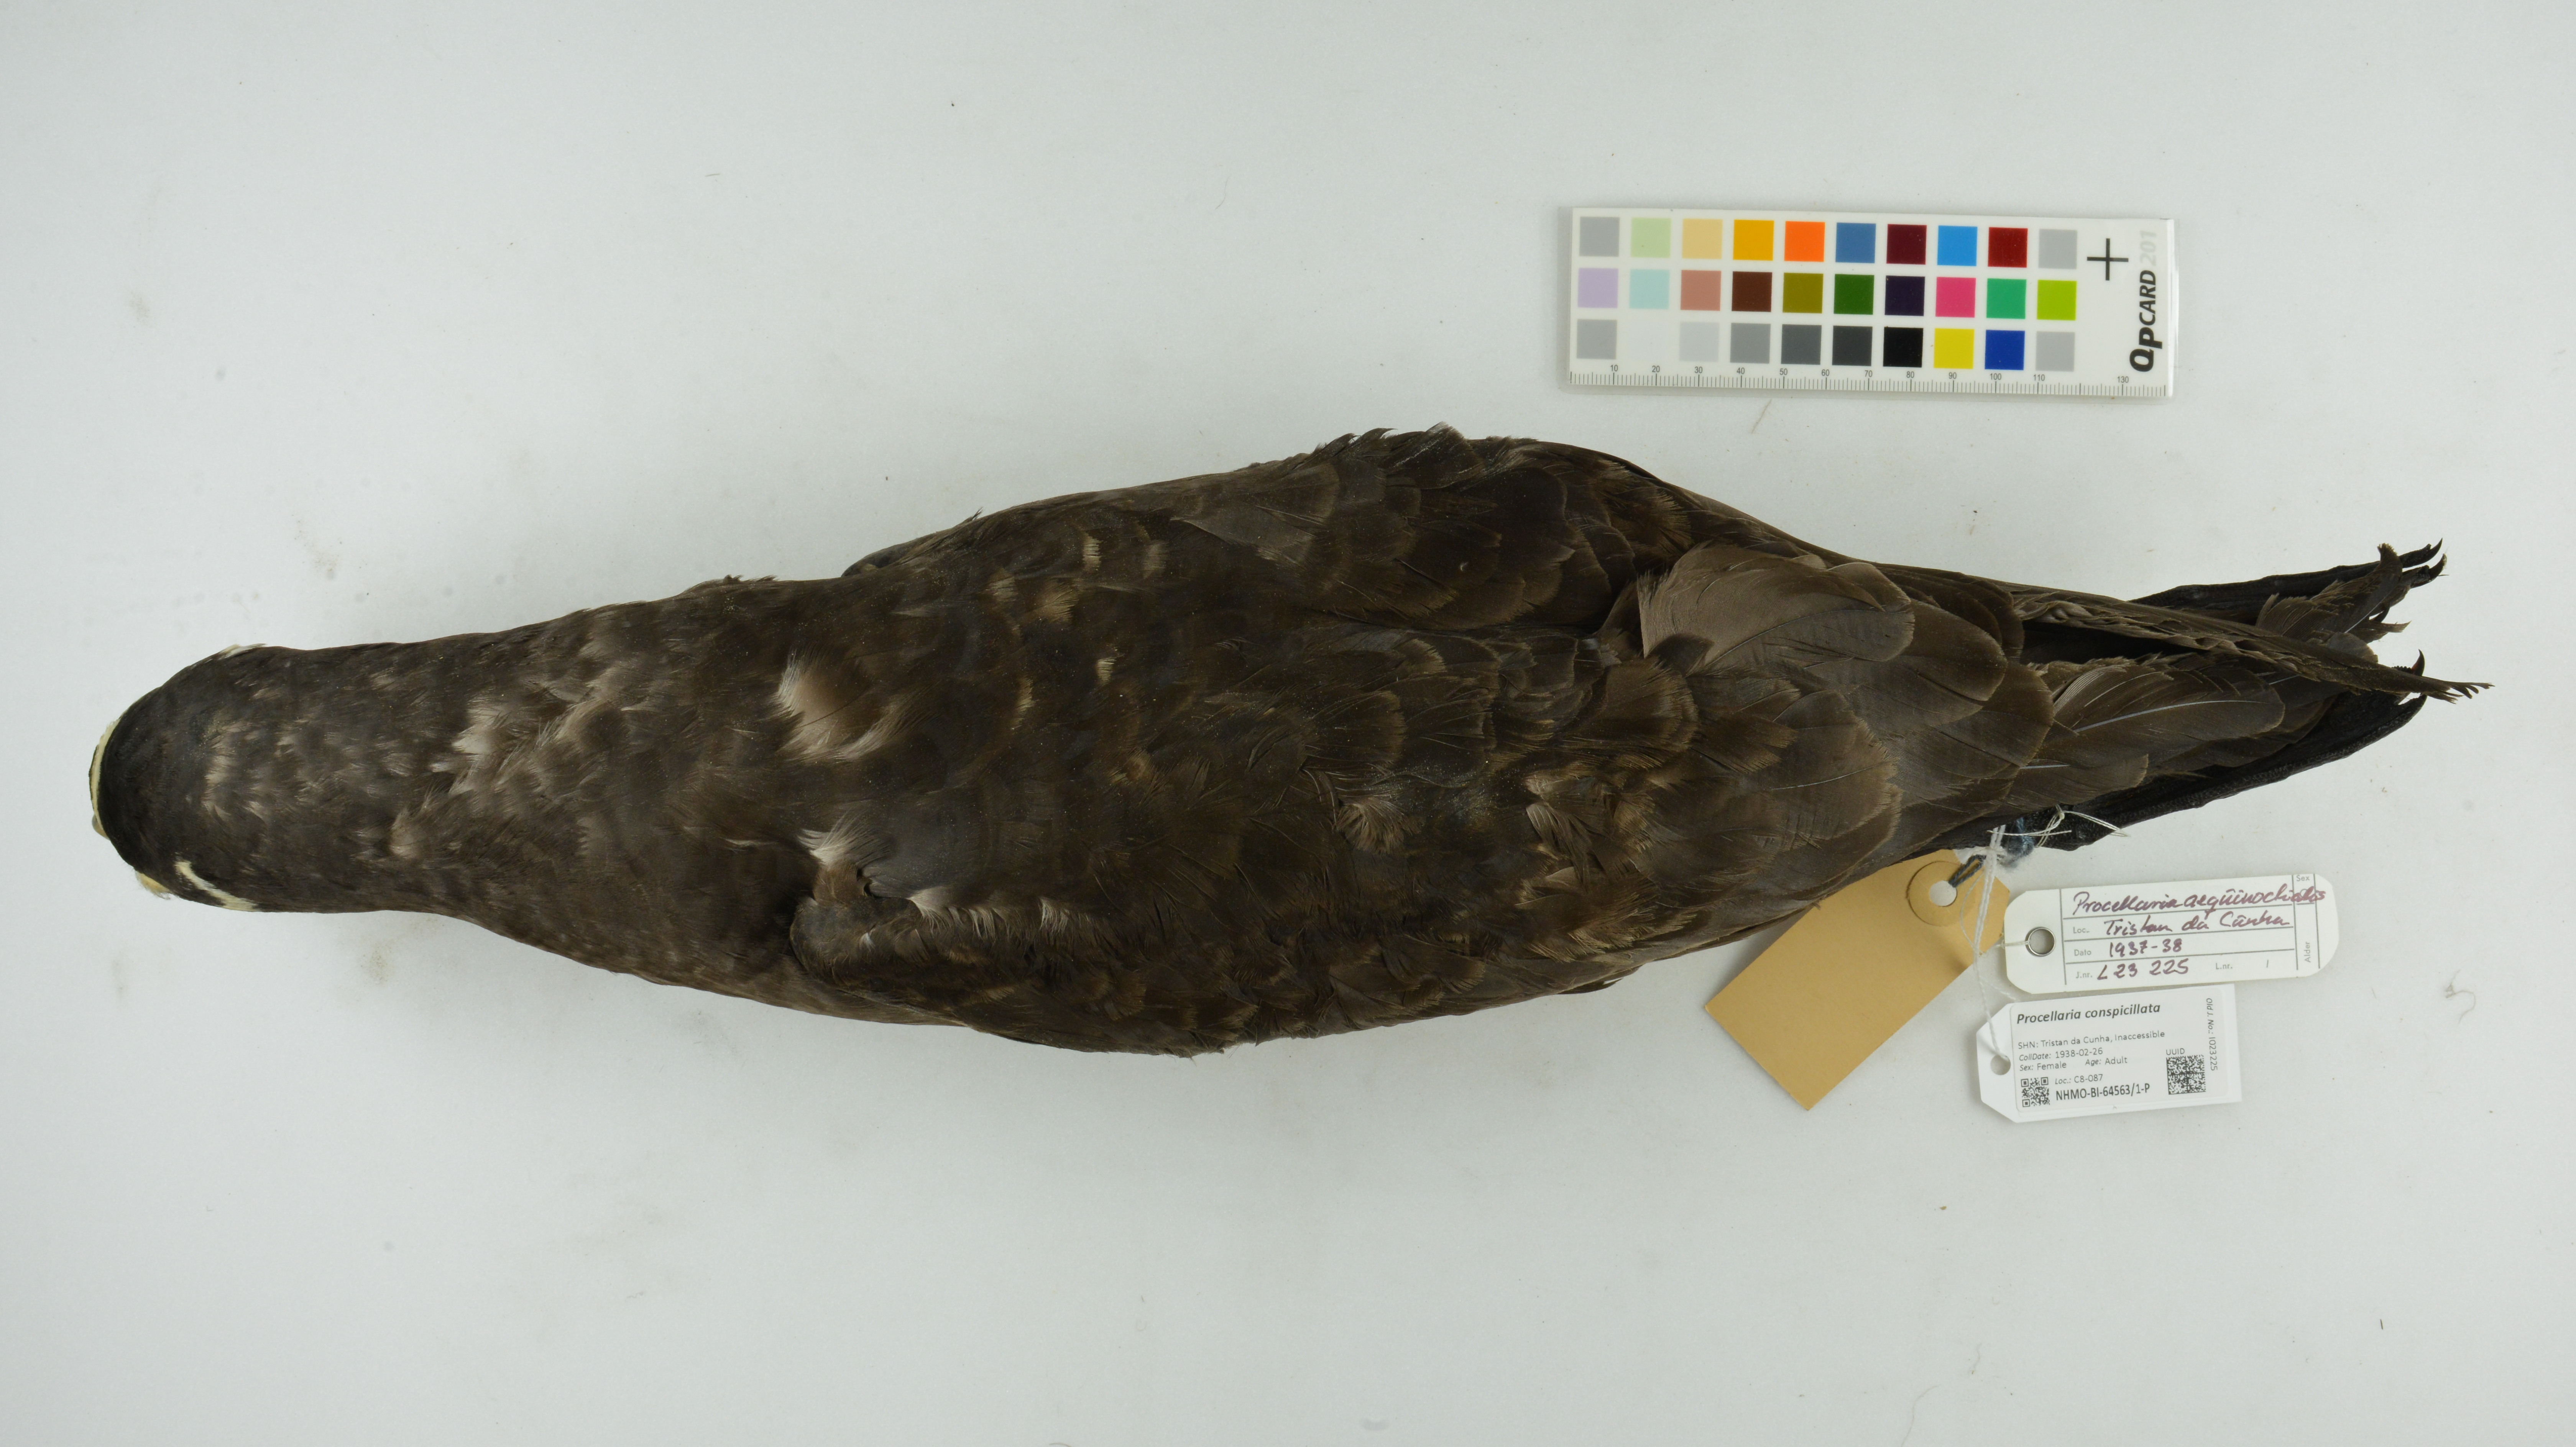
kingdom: Animalia
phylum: Chordata
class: Aves
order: Procellariiformes
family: Procellariidae
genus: Procellaria
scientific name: Procellaria conspicillata
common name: Spectacled petrel
